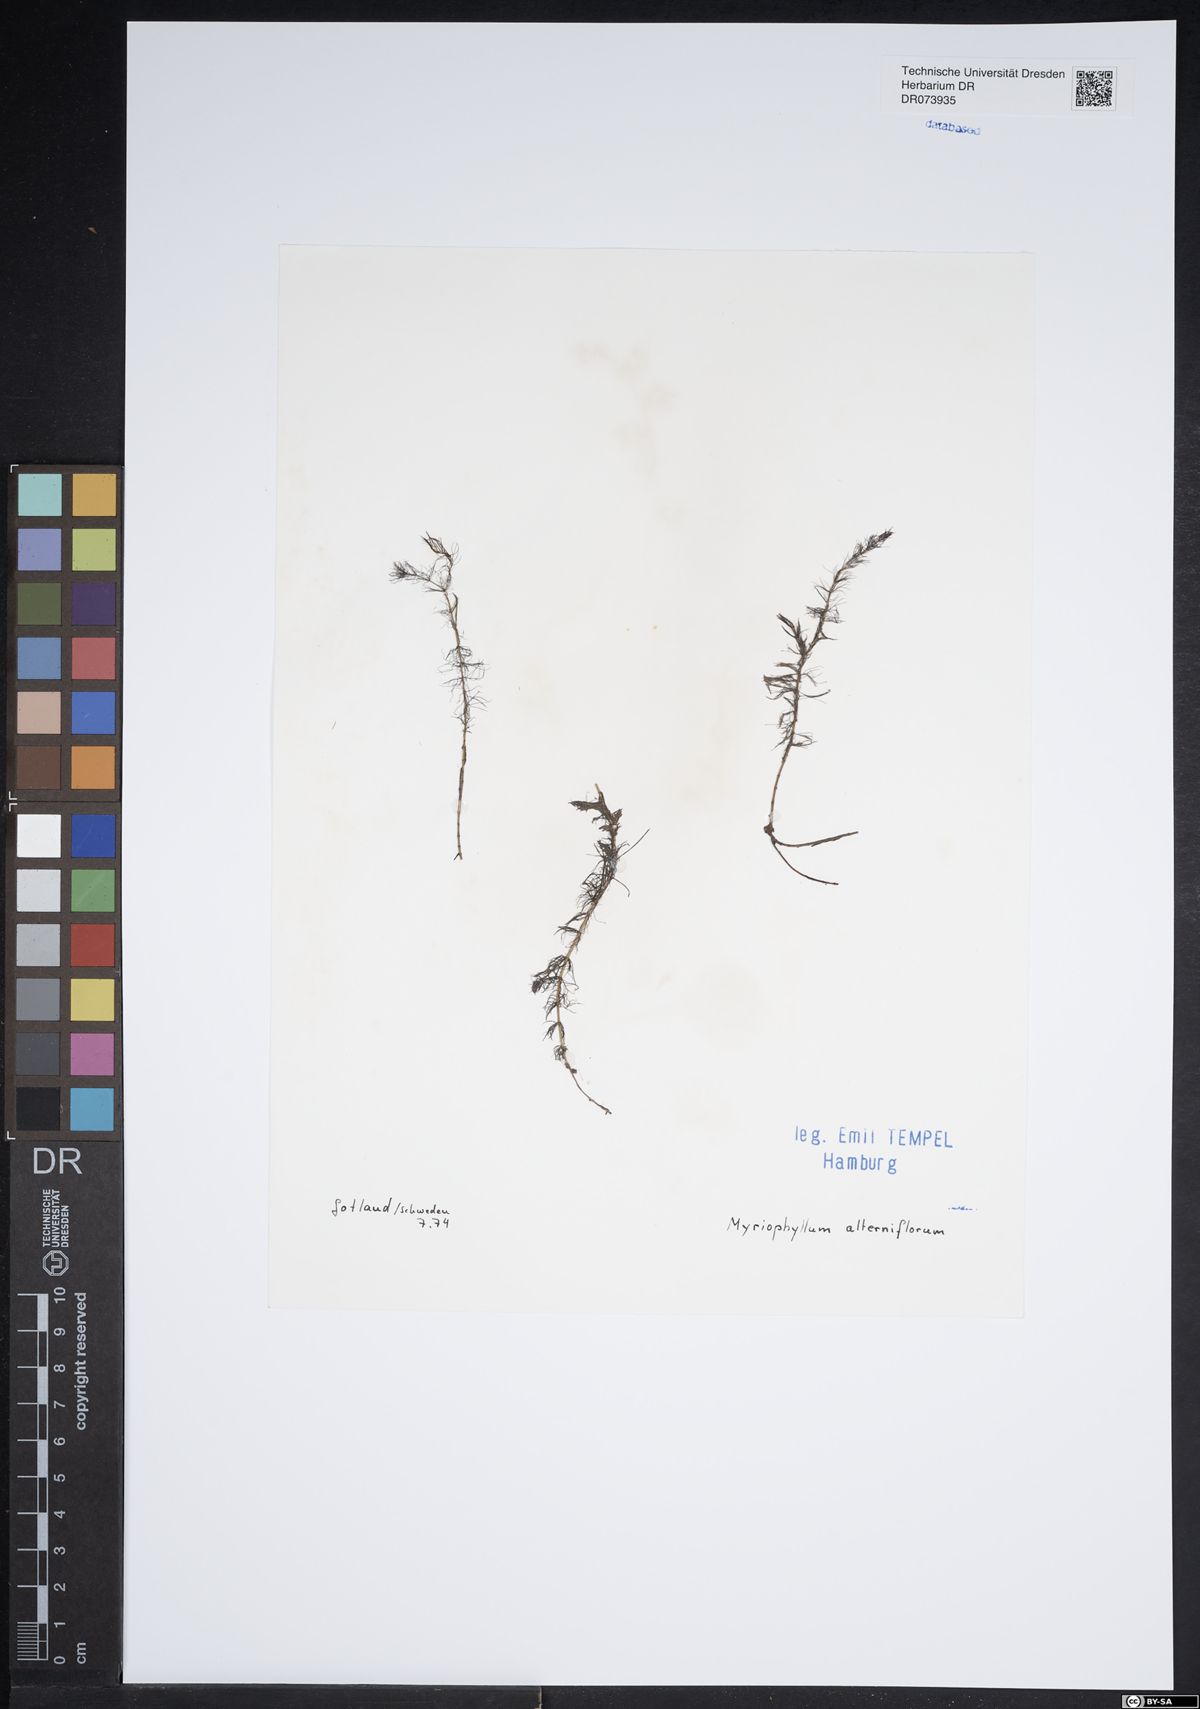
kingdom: Plantae
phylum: Tracheophyta
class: Magnoliopsida
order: Saxifragales
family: Haloragaceae
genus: Myriophyllum
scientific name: Myriophyllum alterniflorum
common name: Alternate water-milfoil
